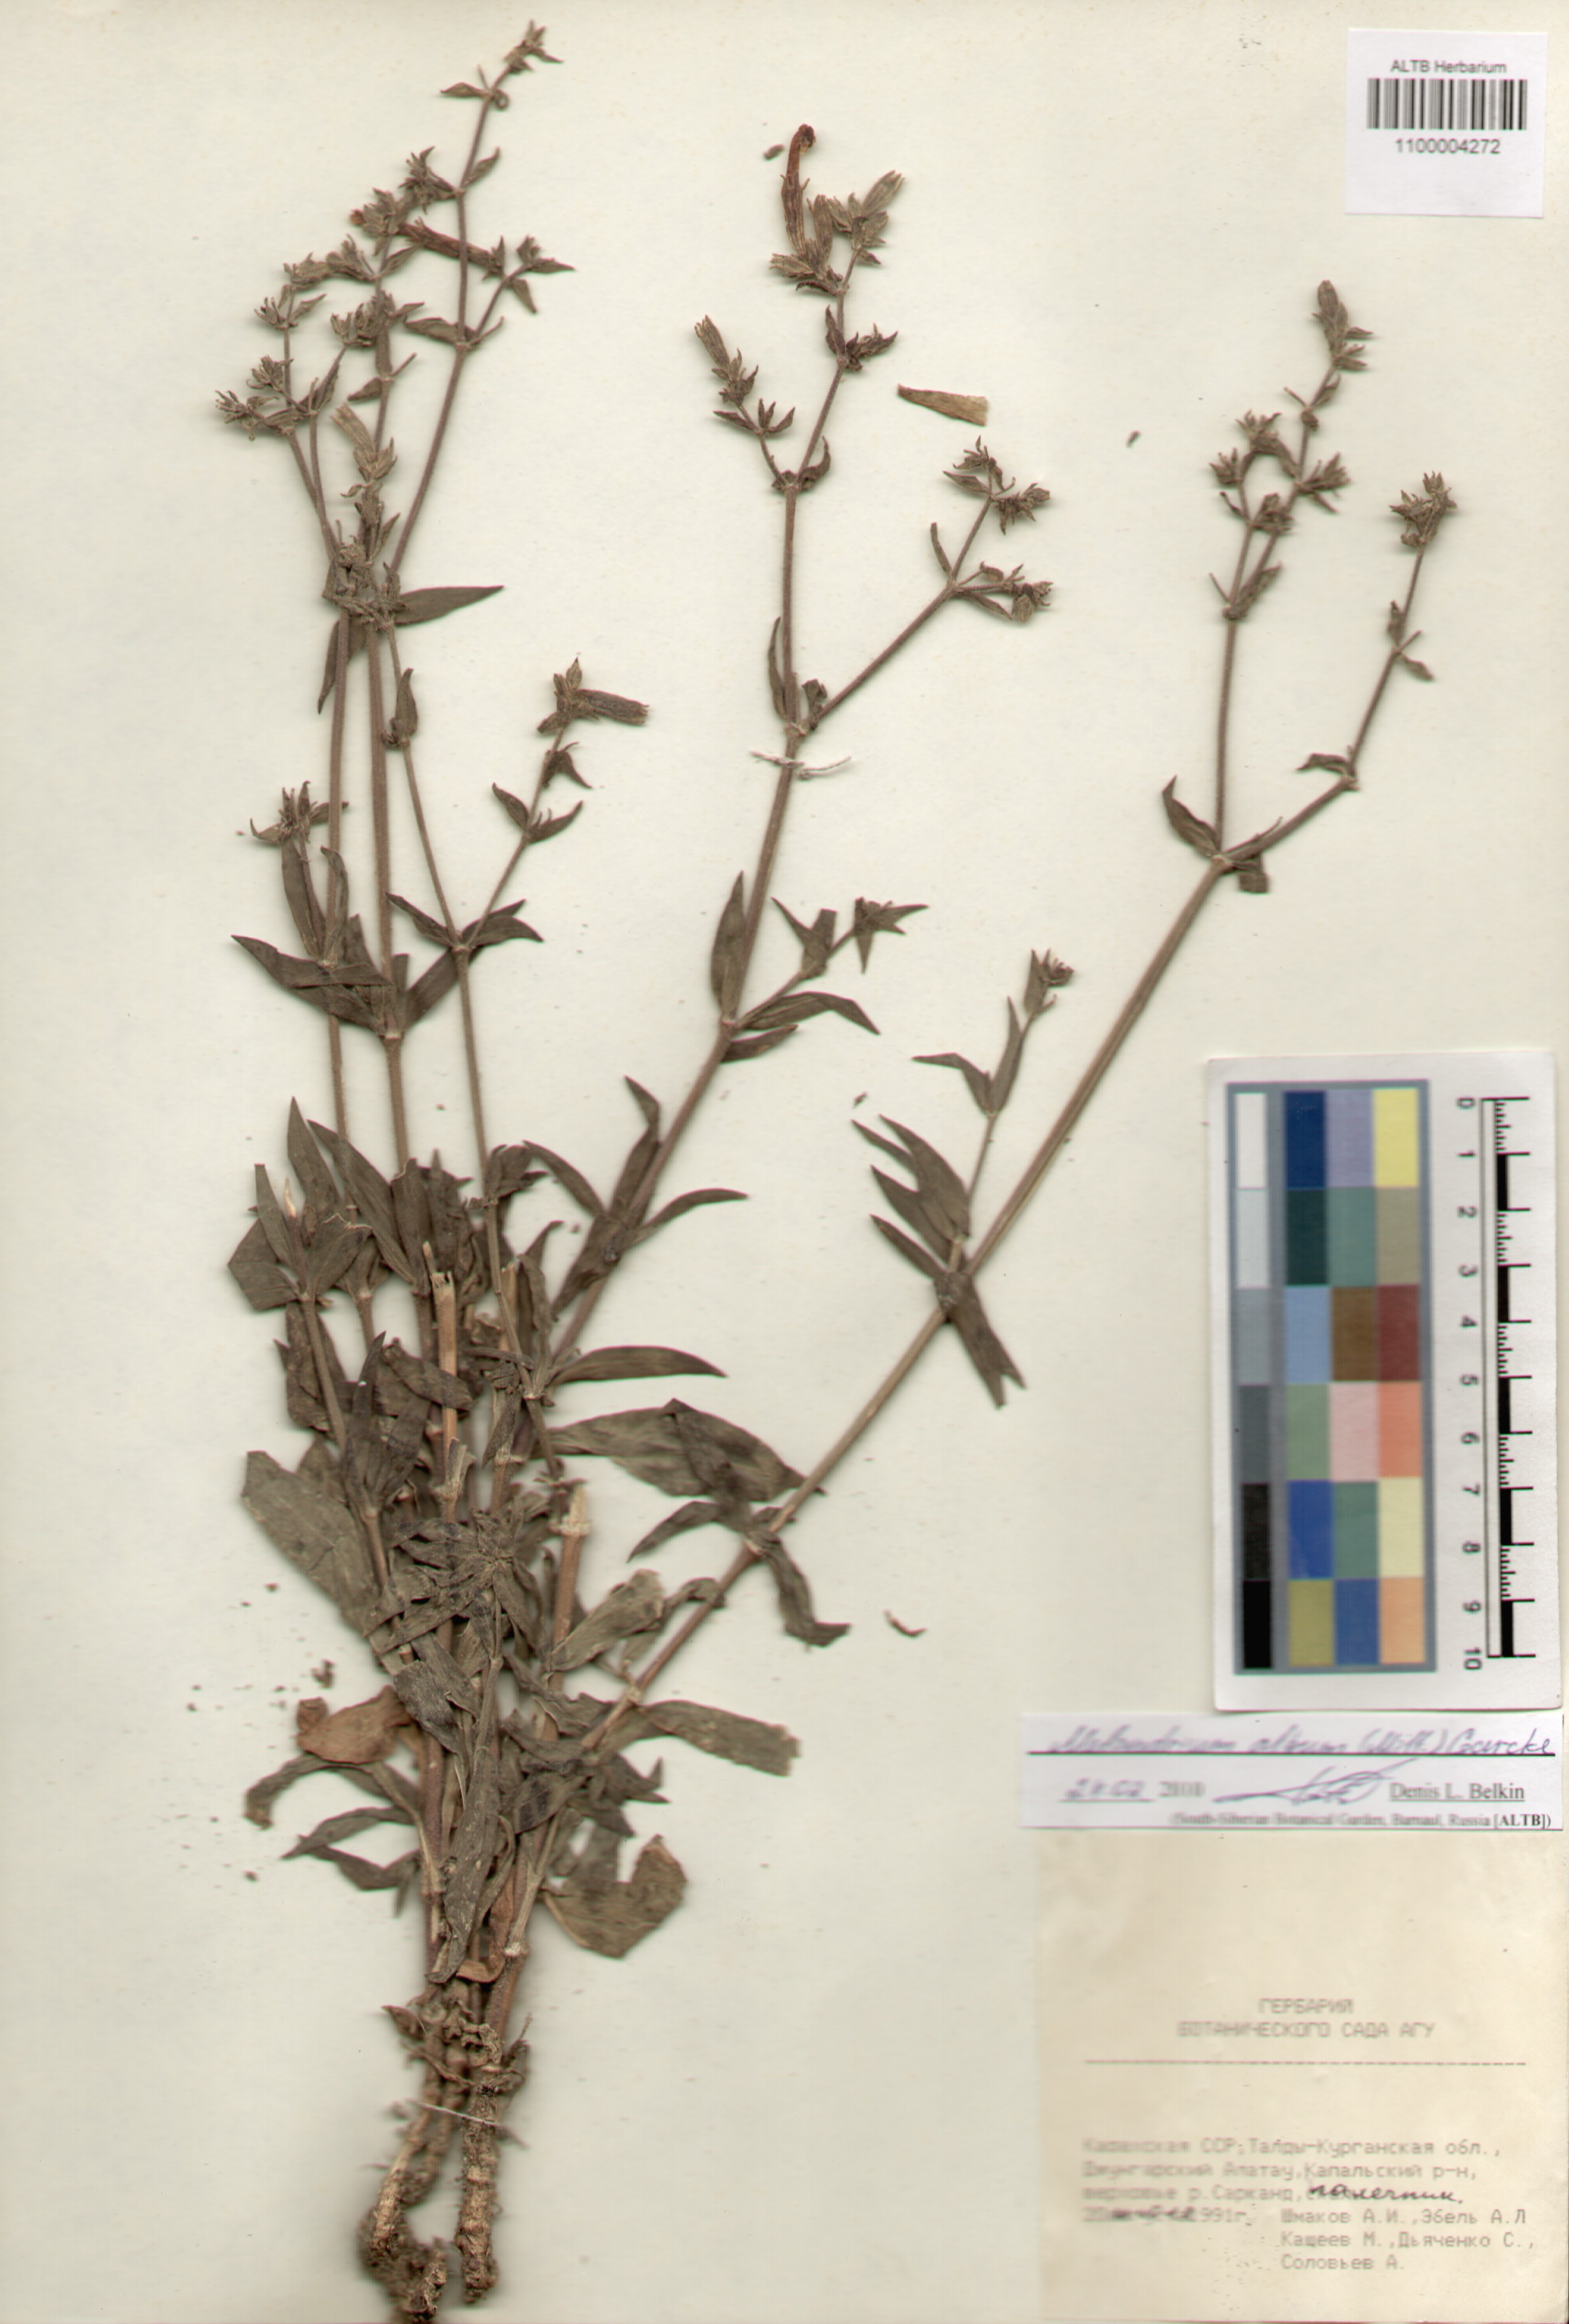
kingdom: Plantae
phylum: Tracheophyta
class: Magnoliopsida
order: Caryophyllales
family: Caryophyllaceae
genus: Silene
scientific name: Silene latifolia
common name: White campion
